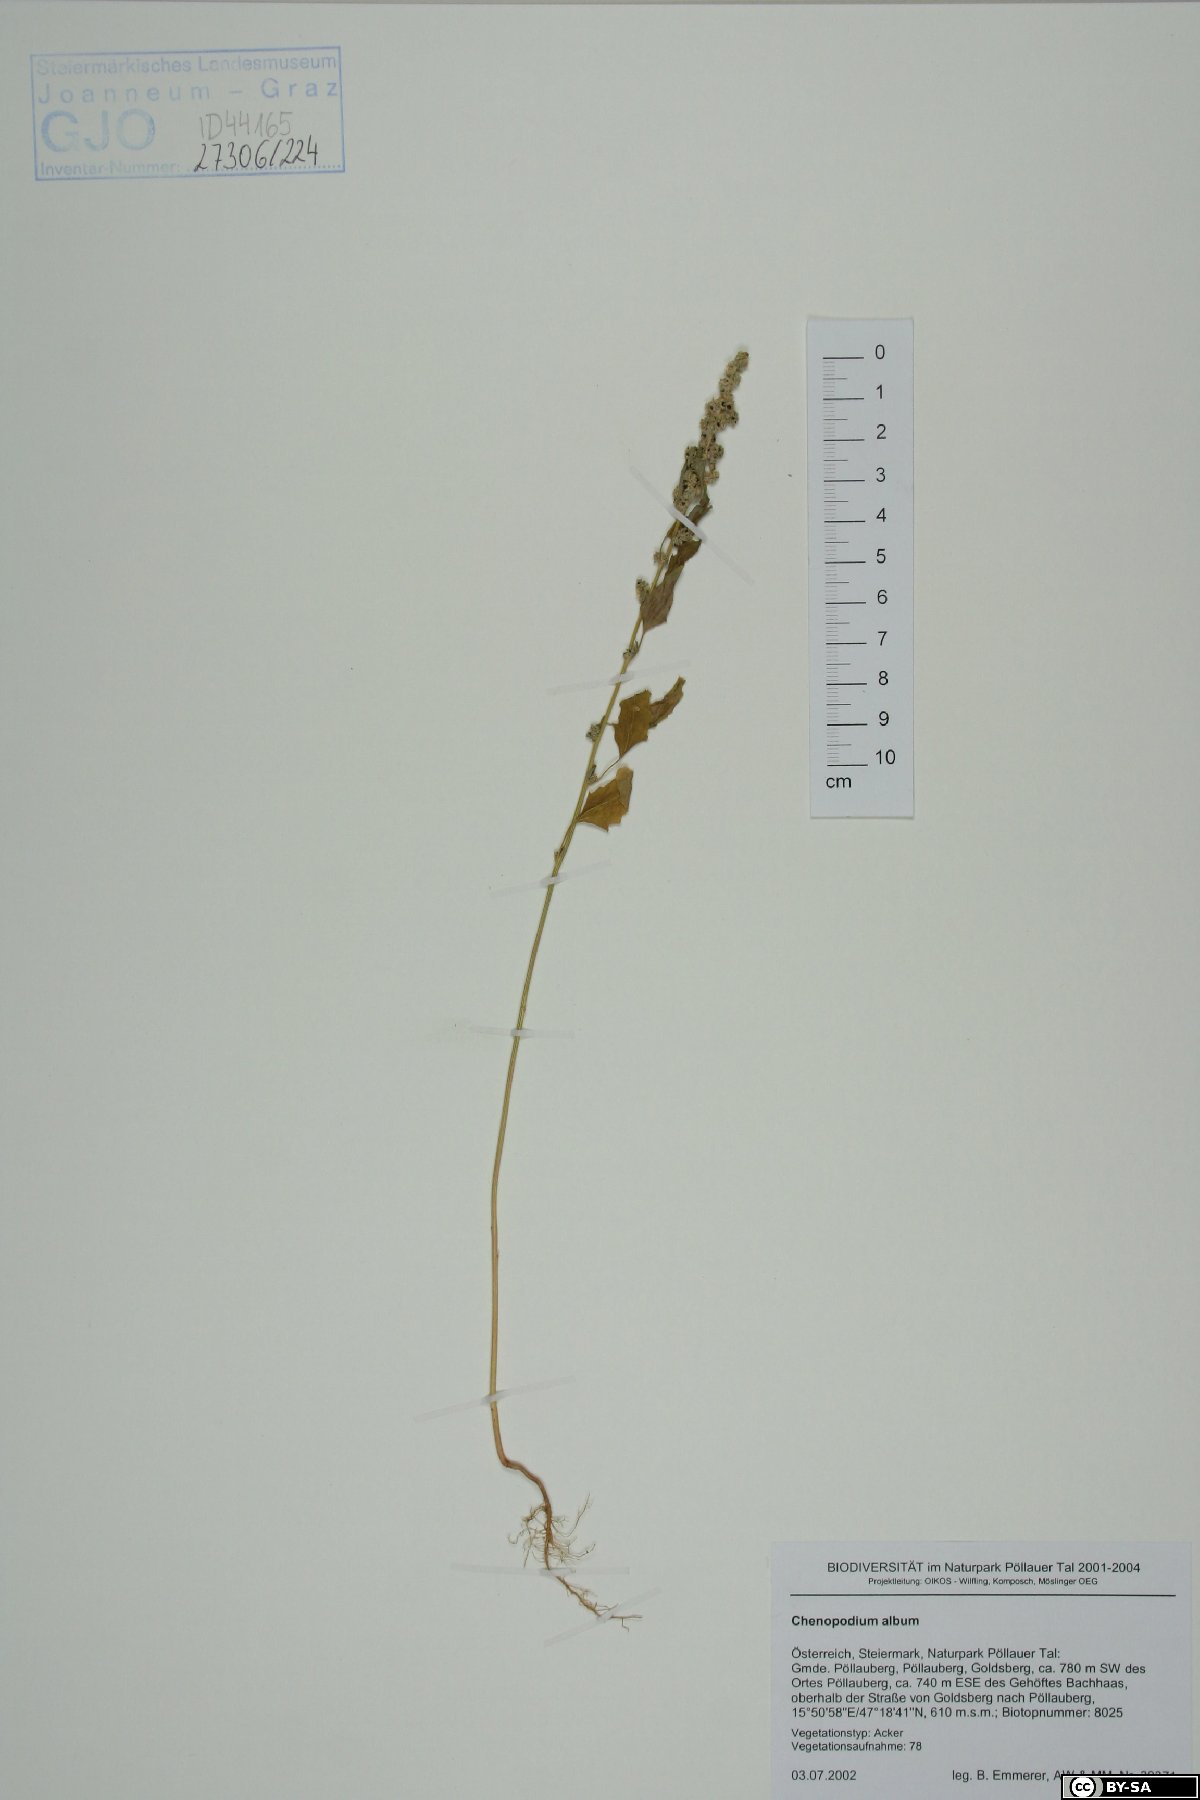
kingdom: Plantae
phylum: Tracheophyta
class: Magnoliopsida
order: Caryophyllales
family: Amaranthaceae
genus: Blitum
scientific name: Blitum bonus-henricus
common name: Good king henry
